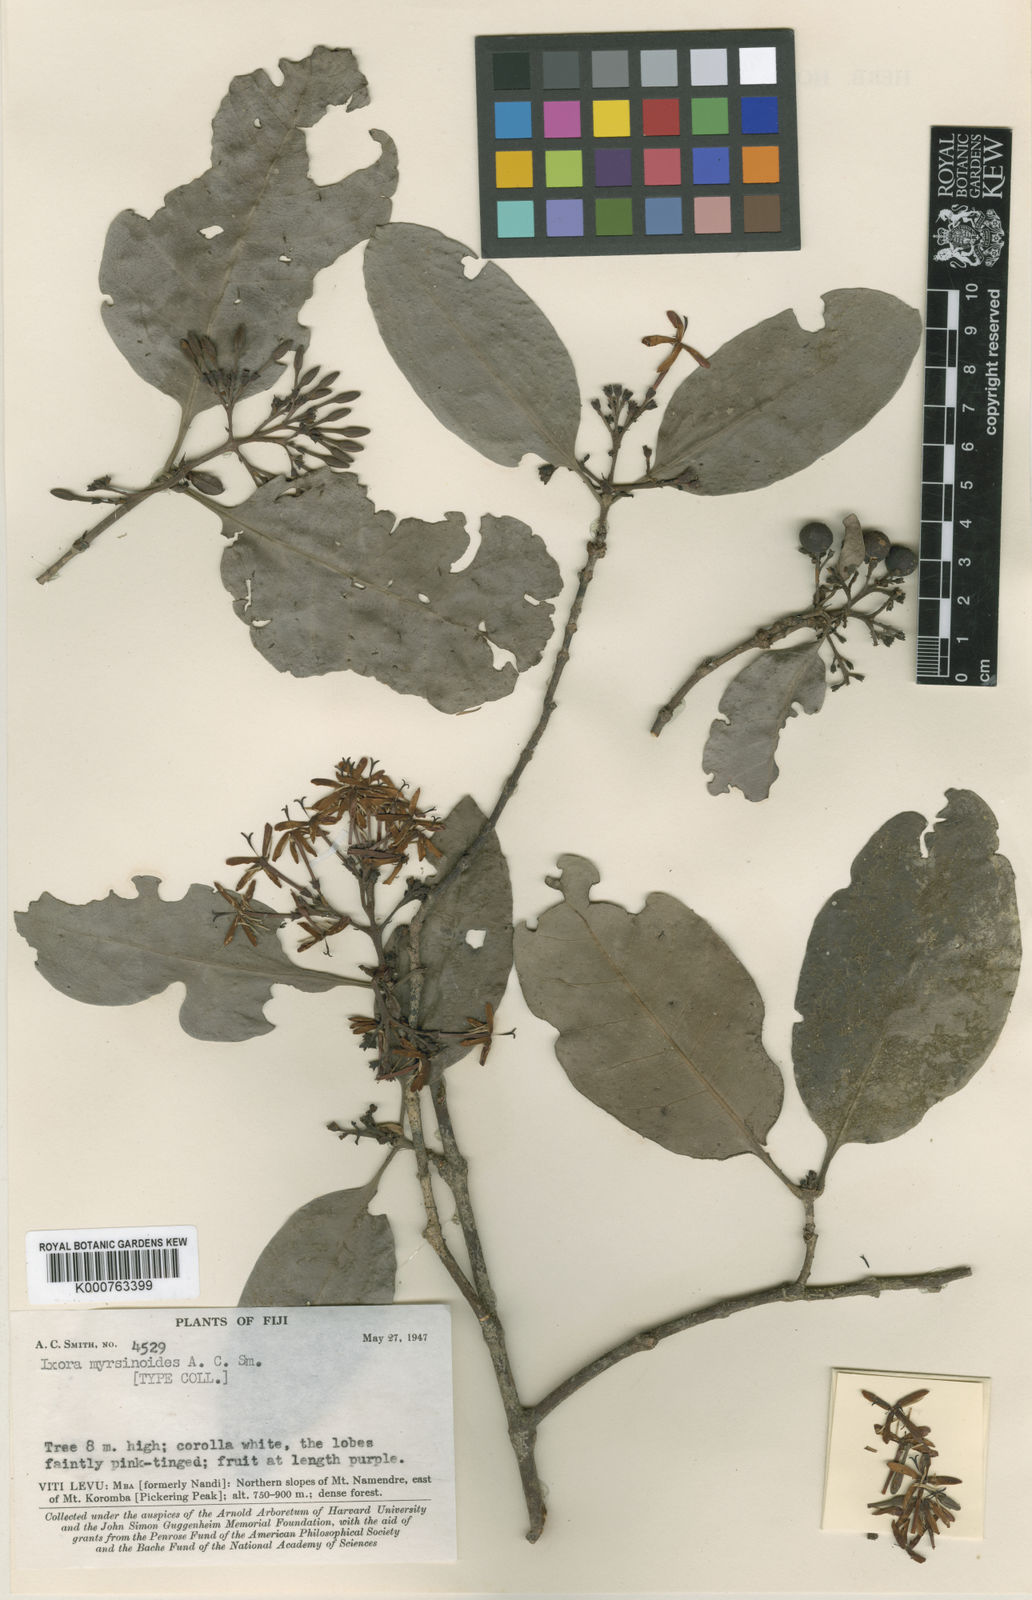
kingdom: Plantae
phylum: Tracheophyta
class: Magnoliopsida
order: Gentianales
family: Rubiaceae
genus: Ixora
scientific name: Ixora myrsinoides
